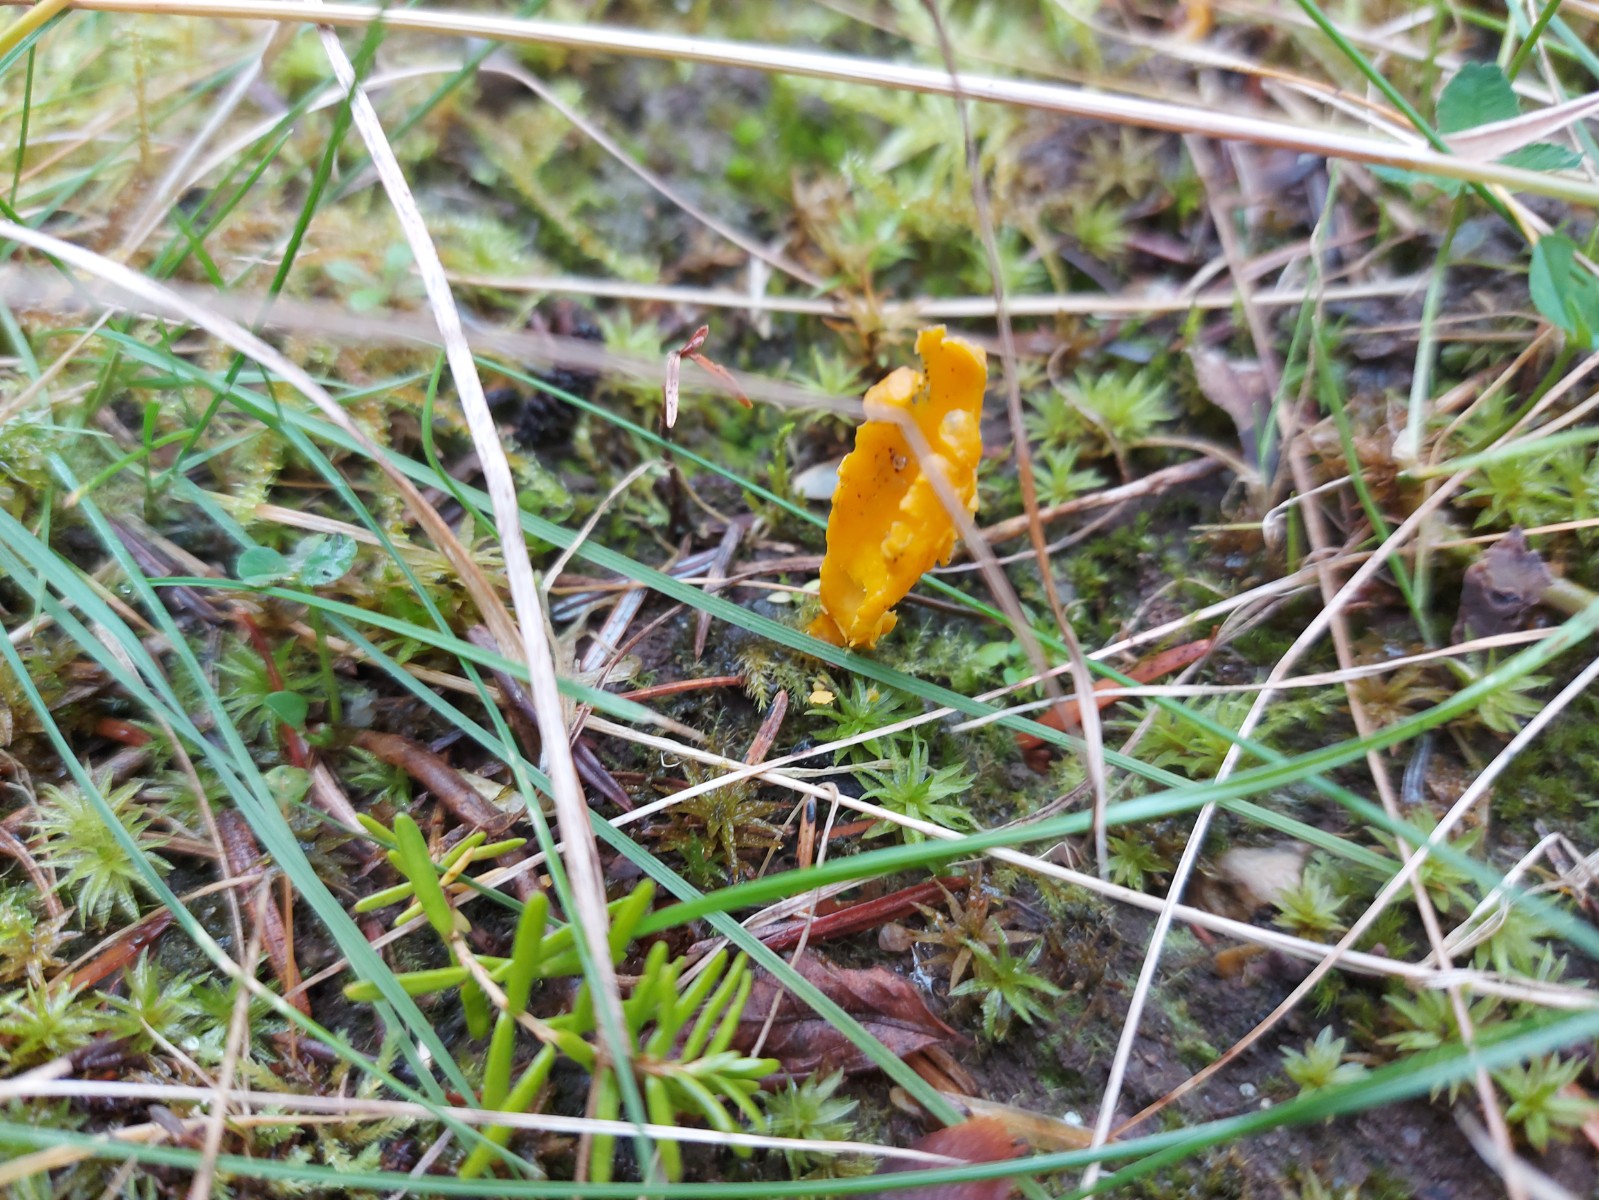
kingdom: Fungi
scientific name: Fungi
